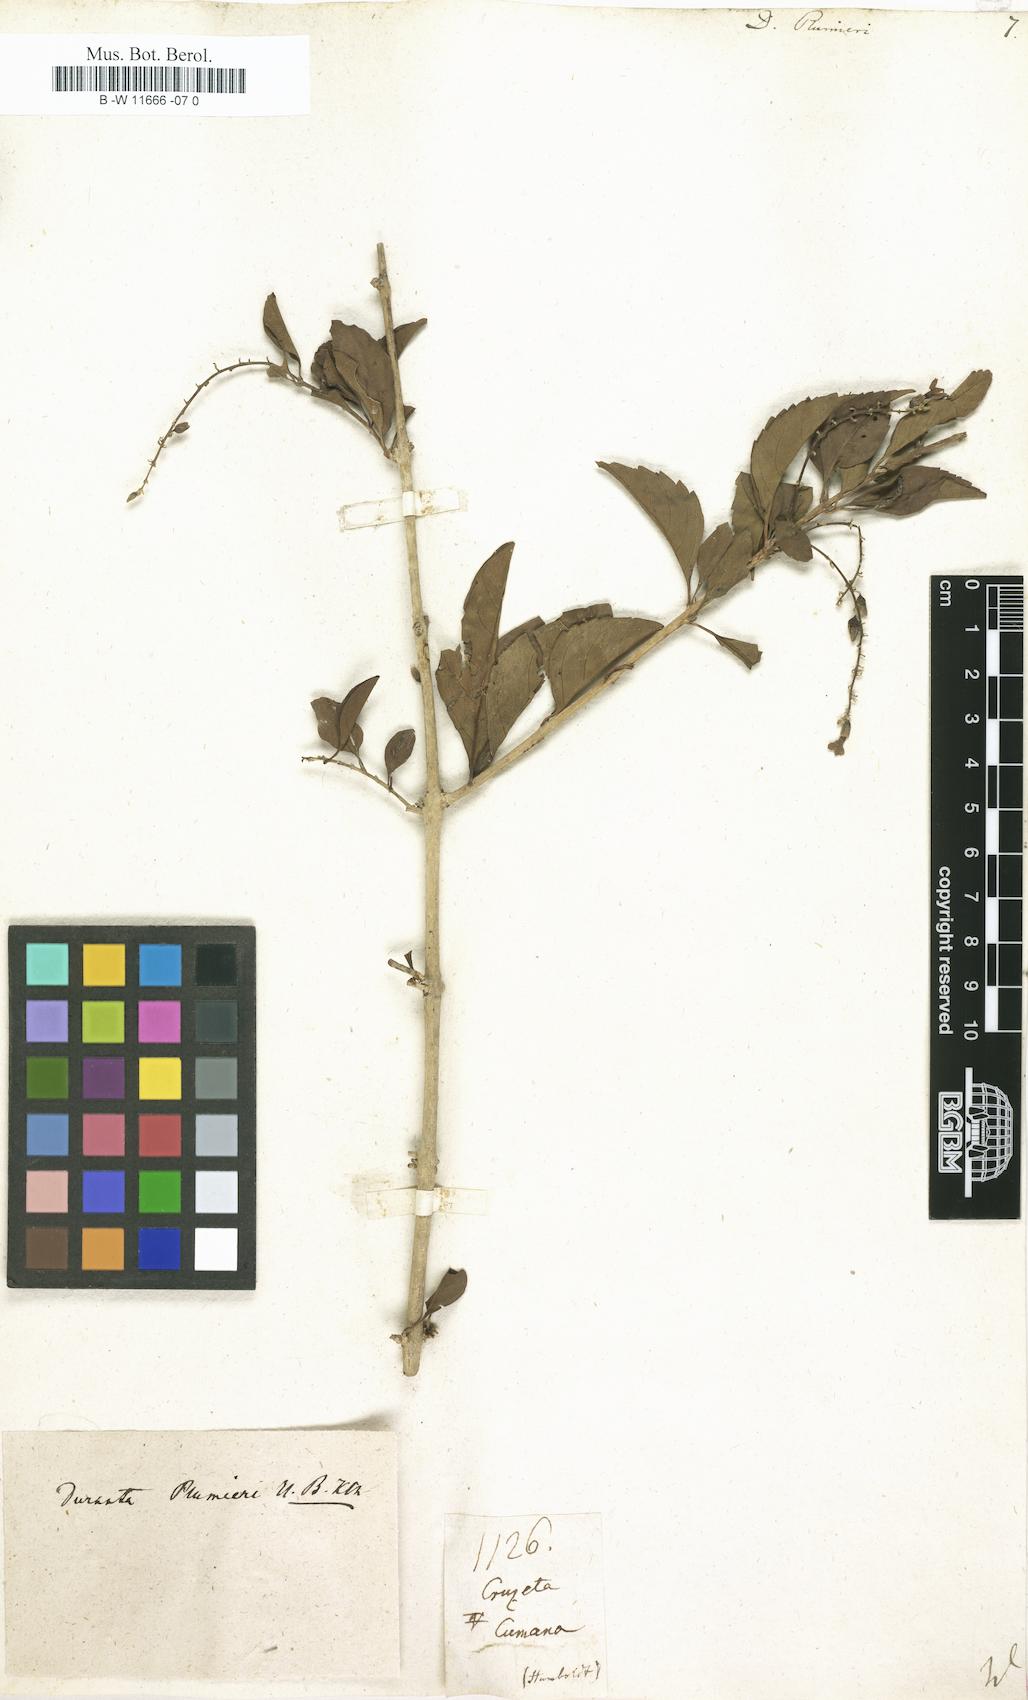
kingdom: Plantae
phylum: Tracheophyta
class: Magnoliopsida
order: Lamiales
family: Verbenaceae
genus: Duranta
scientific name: Duranta erecta
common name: Golden dewdrops
